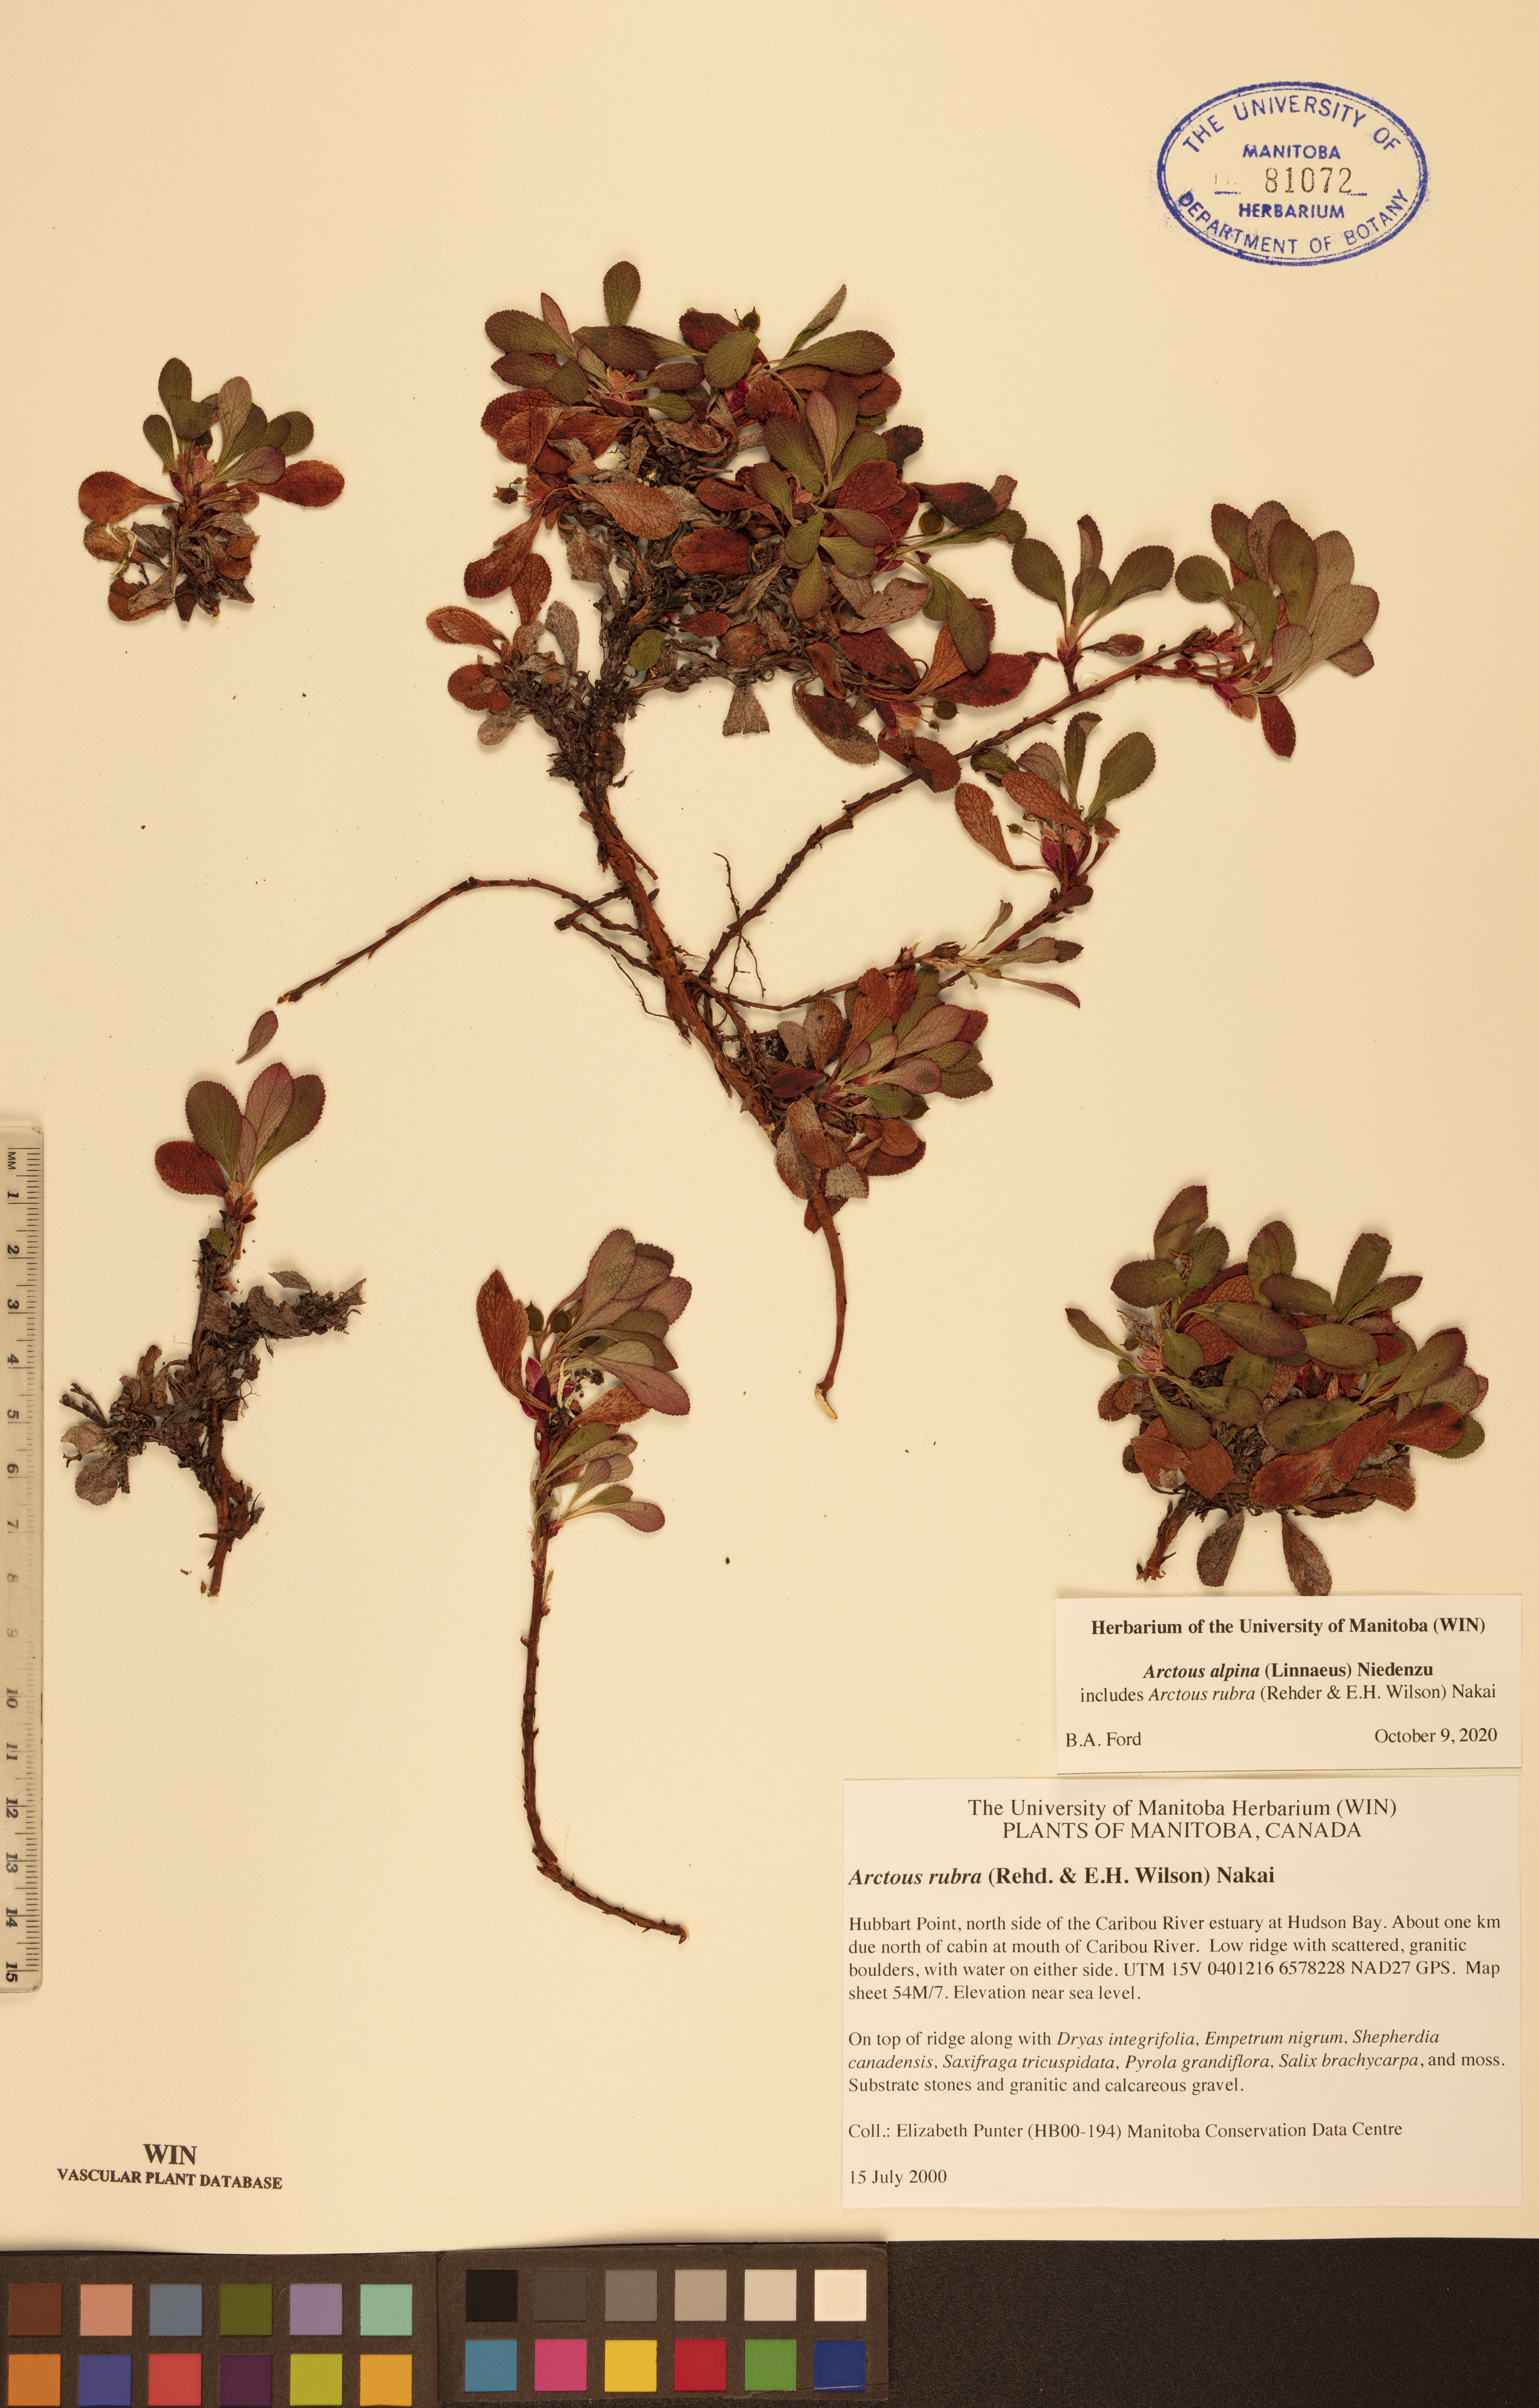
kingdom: Plantae
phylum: Tracheophyta
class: Magnoliopsida
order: Ericales
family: Ericaceae
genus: Arctostaphylos
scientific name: Arctostaphylos alpinus
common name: Alpine bearberry
